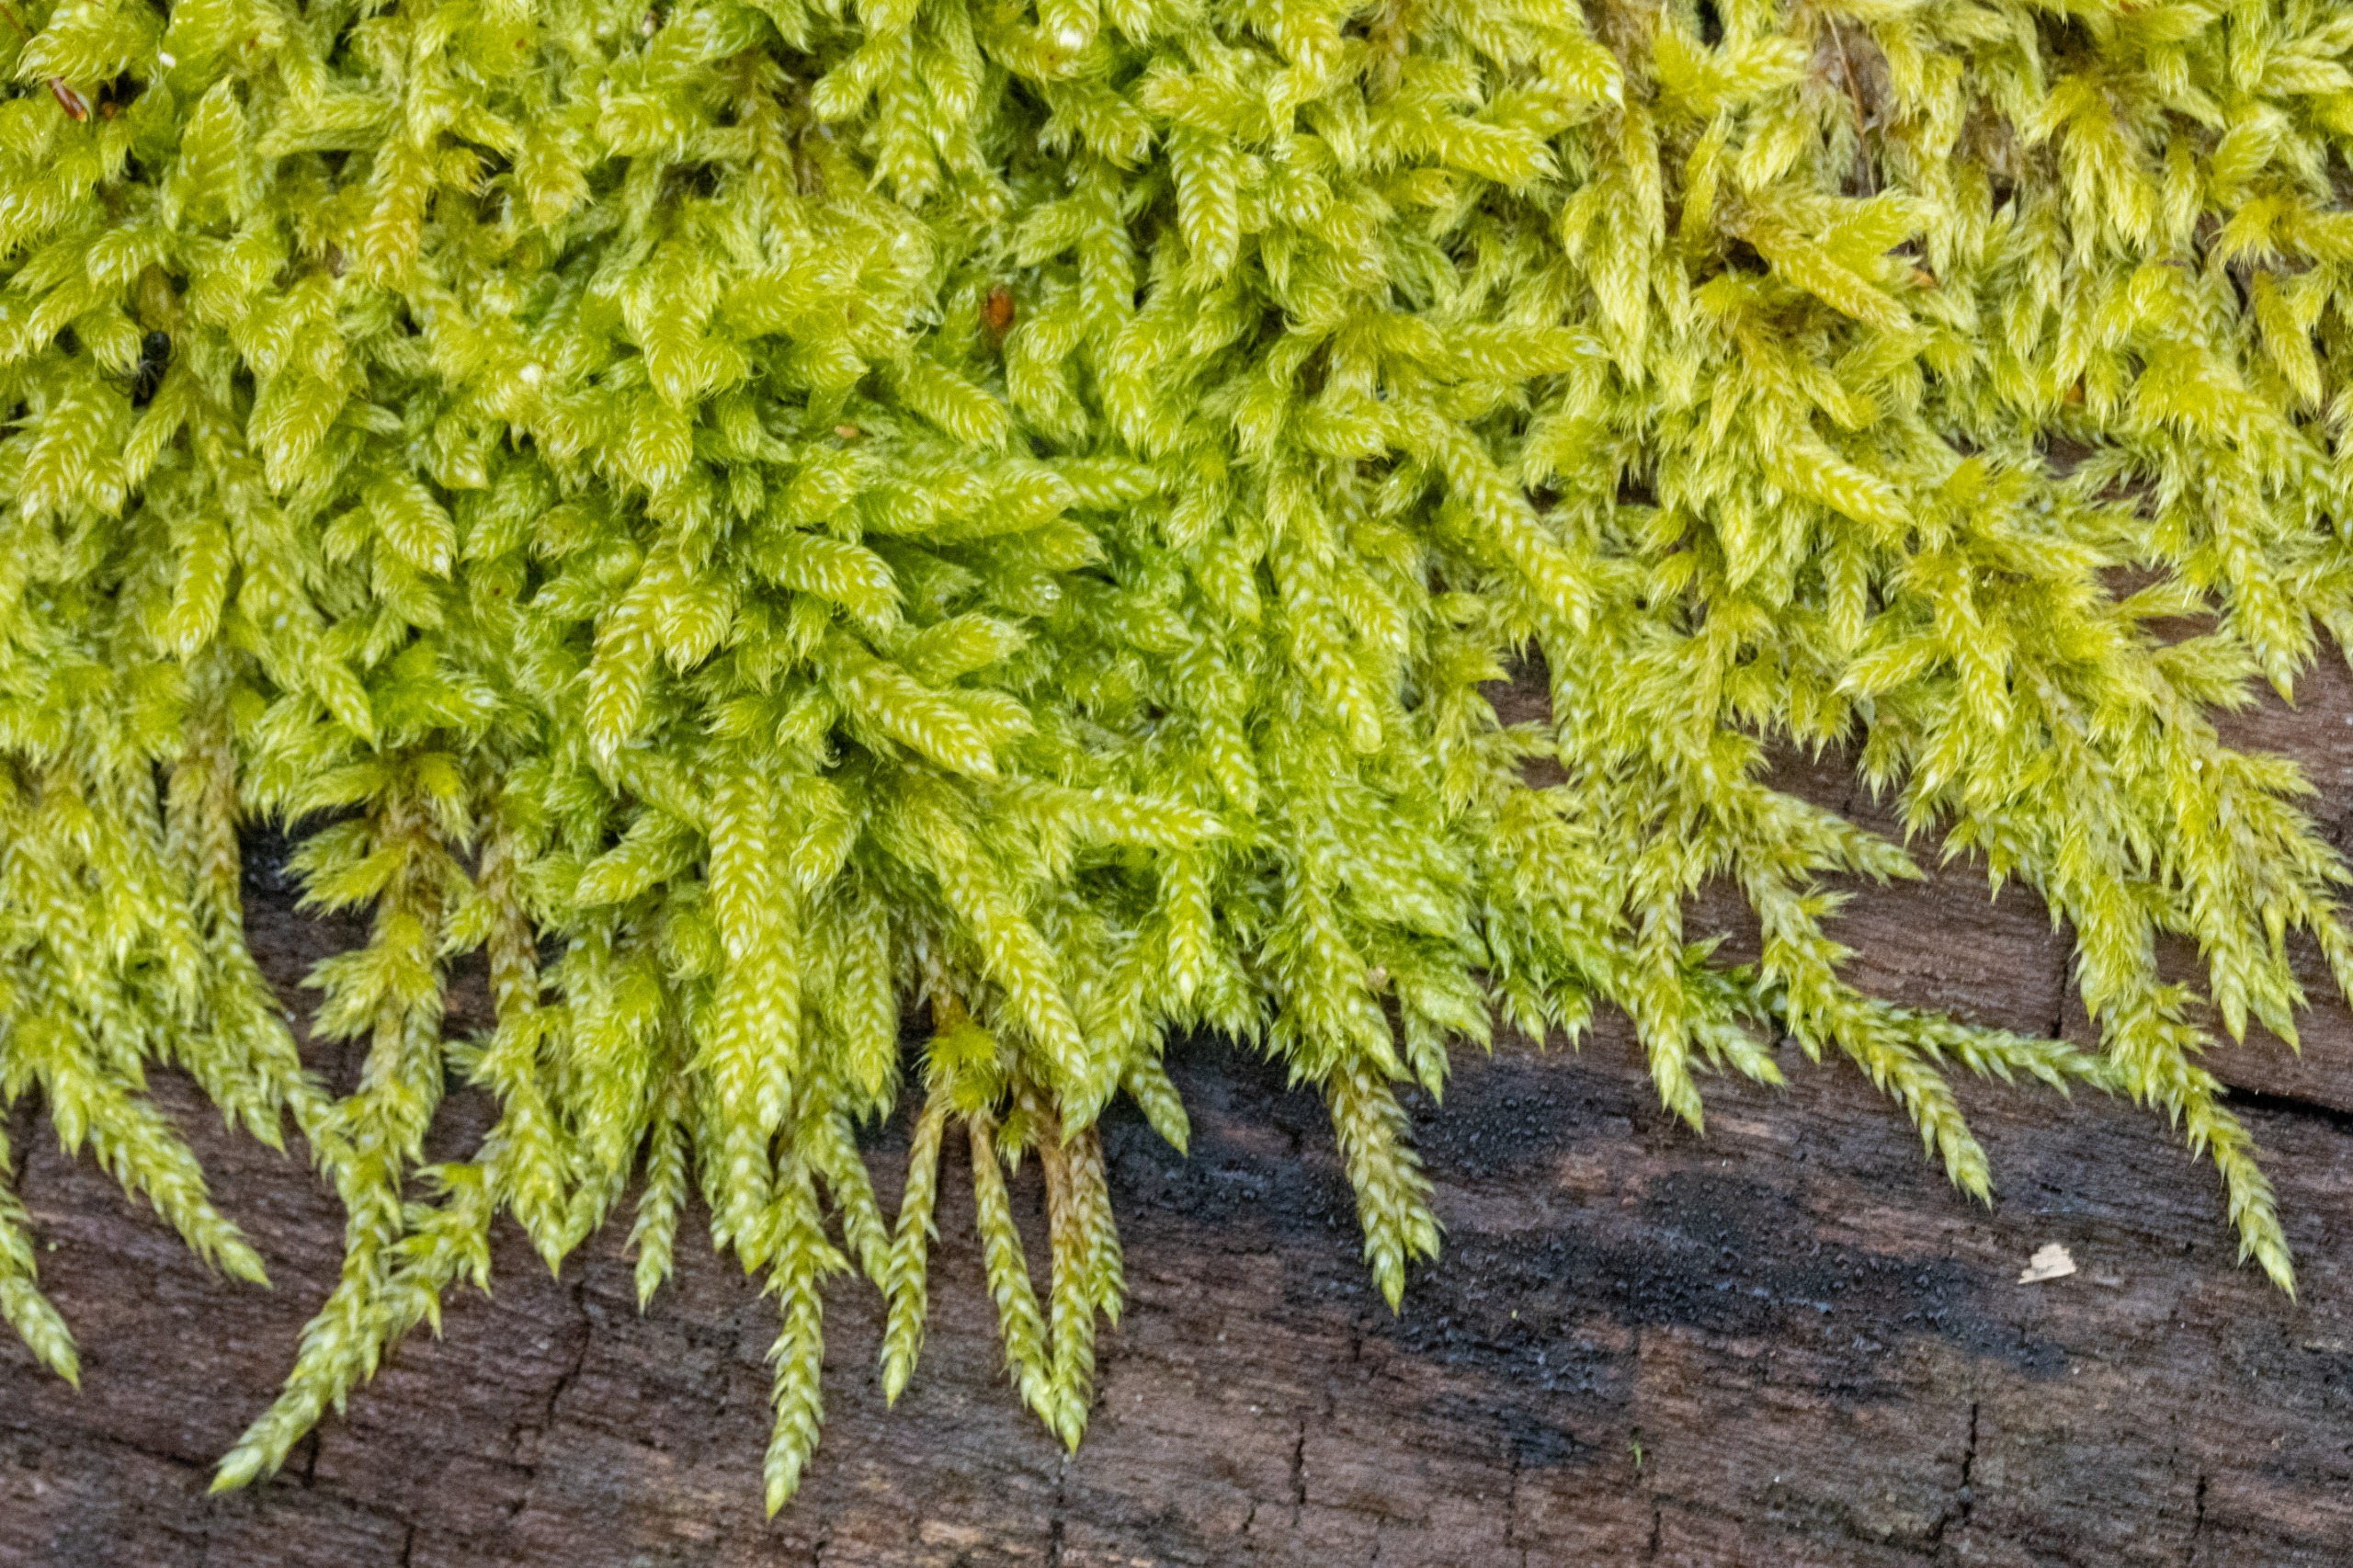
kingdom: Plantae
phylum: Bryophyta
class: Bryopsida
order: Hypnales
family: Hypnaceae
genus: Hypnum
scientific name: Hypnum cupressiforme
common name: Almindelig cypresmos
